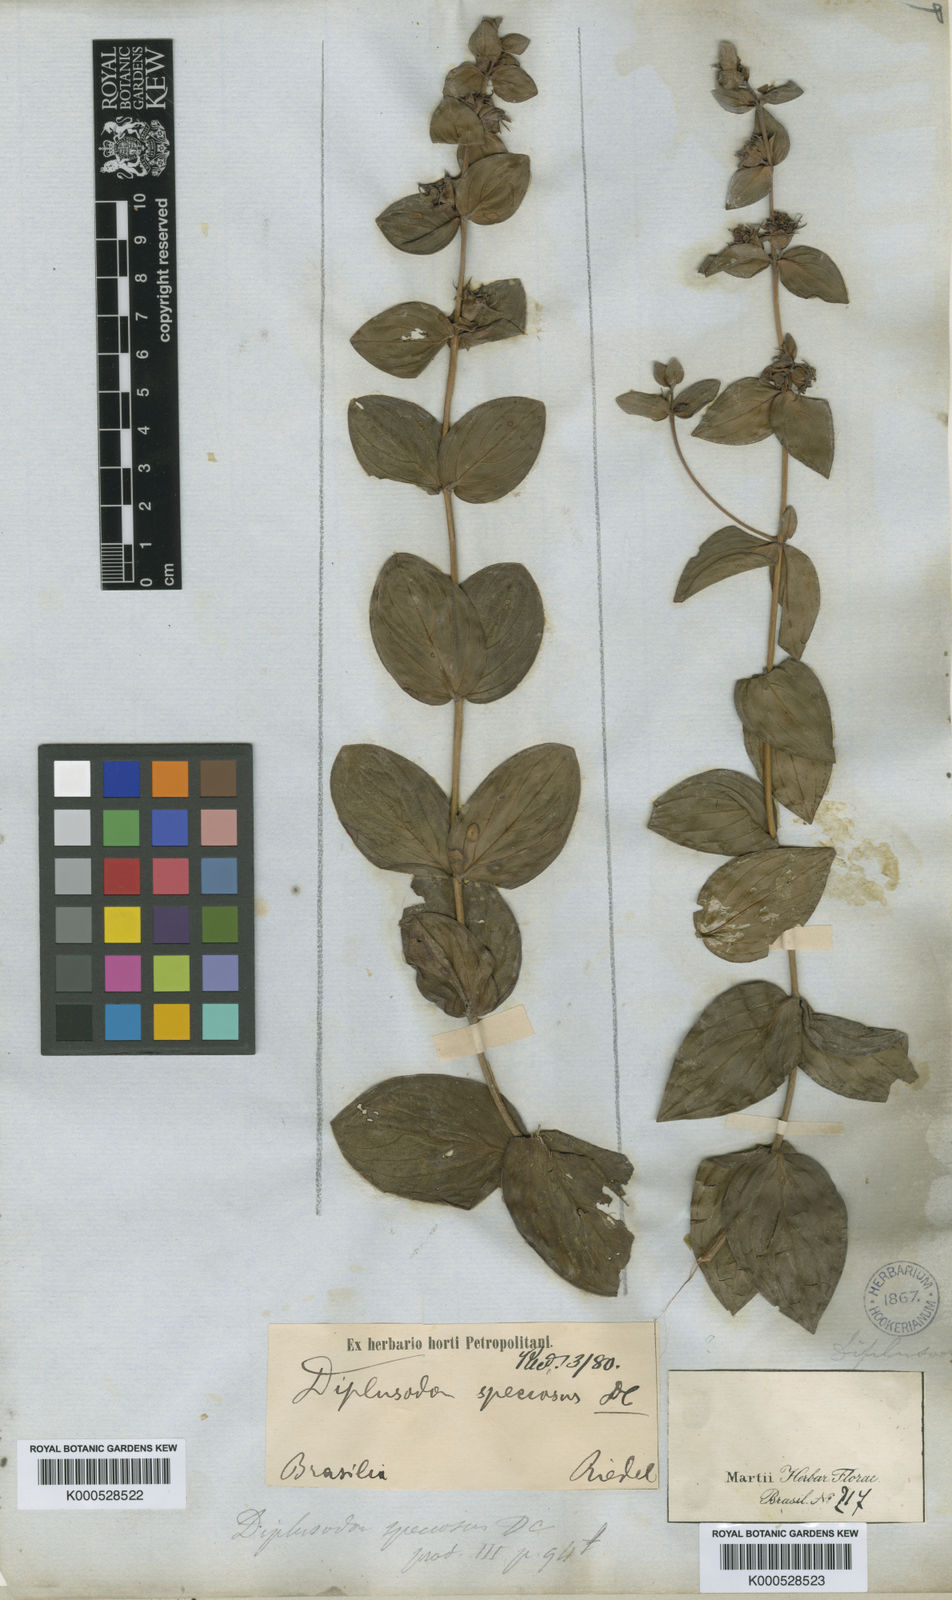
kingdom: Plantae
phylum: Tracheophyta
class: Magnoliopsida
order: Myrtales
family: Lythraceae
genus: Diplusodon
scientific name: Diplusodon speciosus
